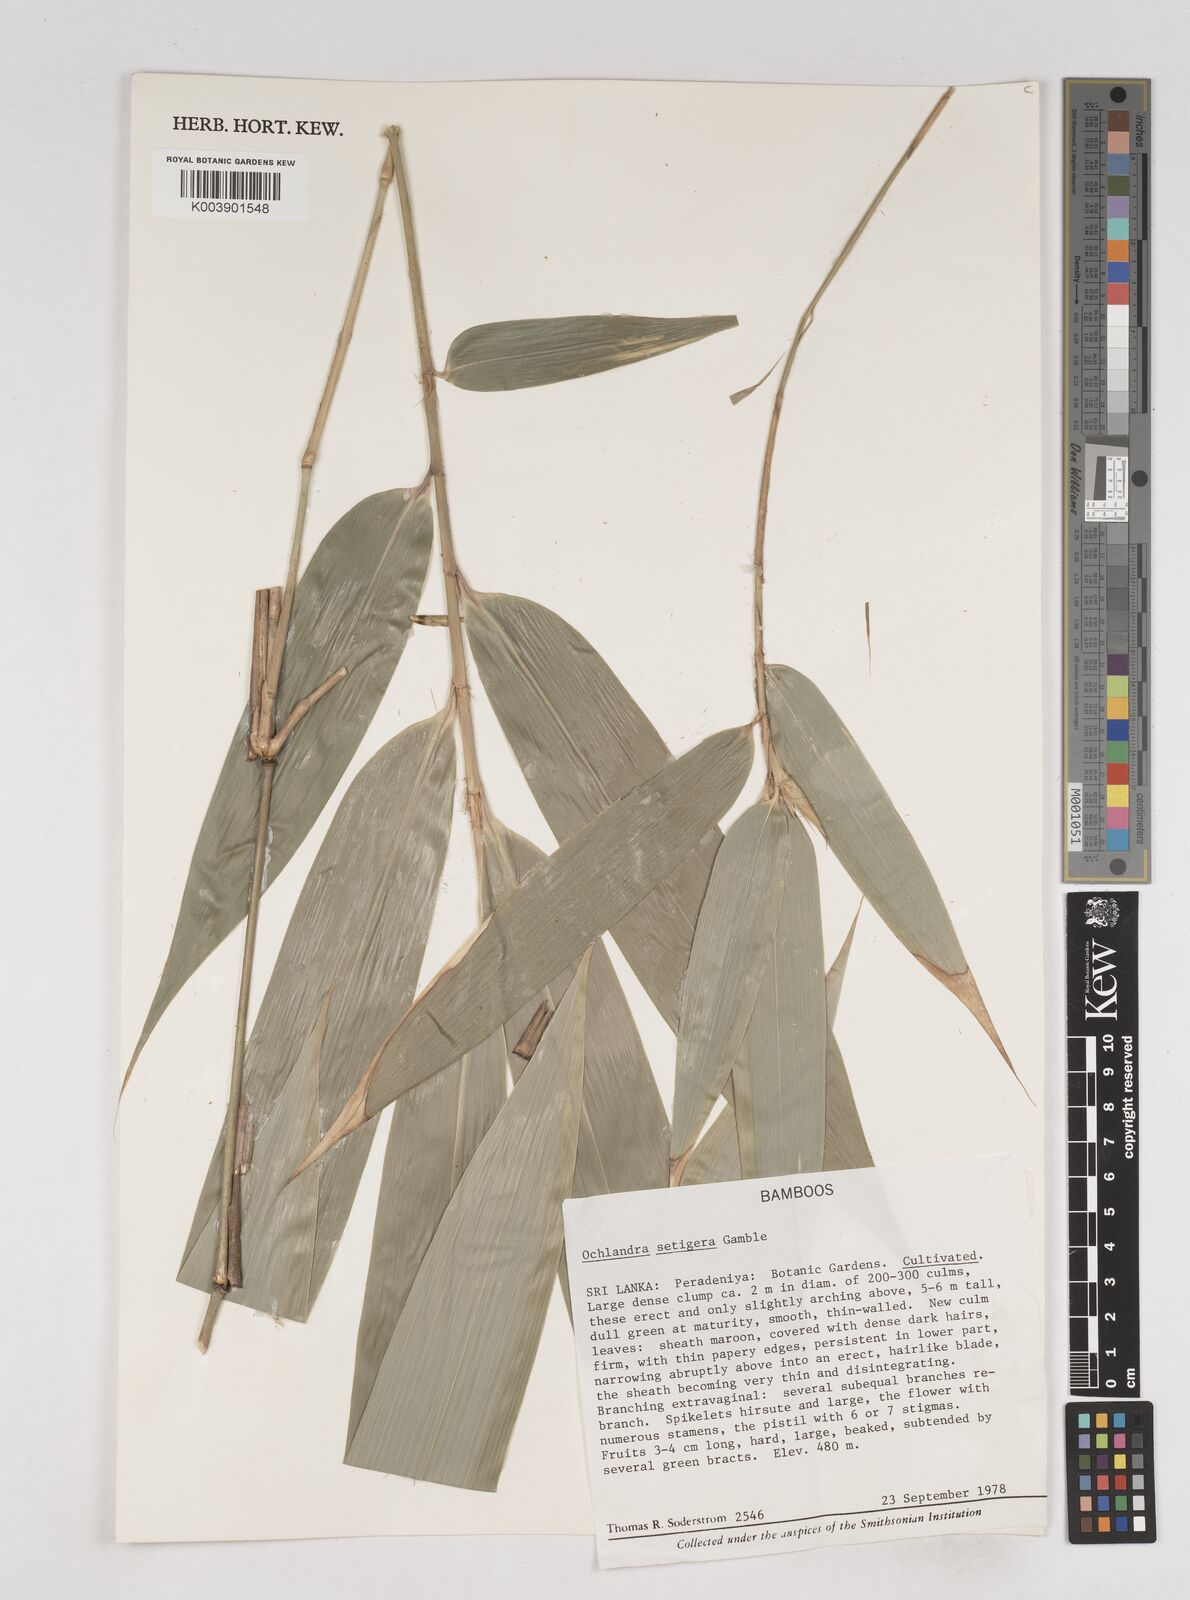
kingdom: Plantae
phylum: Tracheophyta
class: Liliopsida
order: Poales
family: Poaceae
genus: Ochlandra
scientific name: Ochlandra setigera
